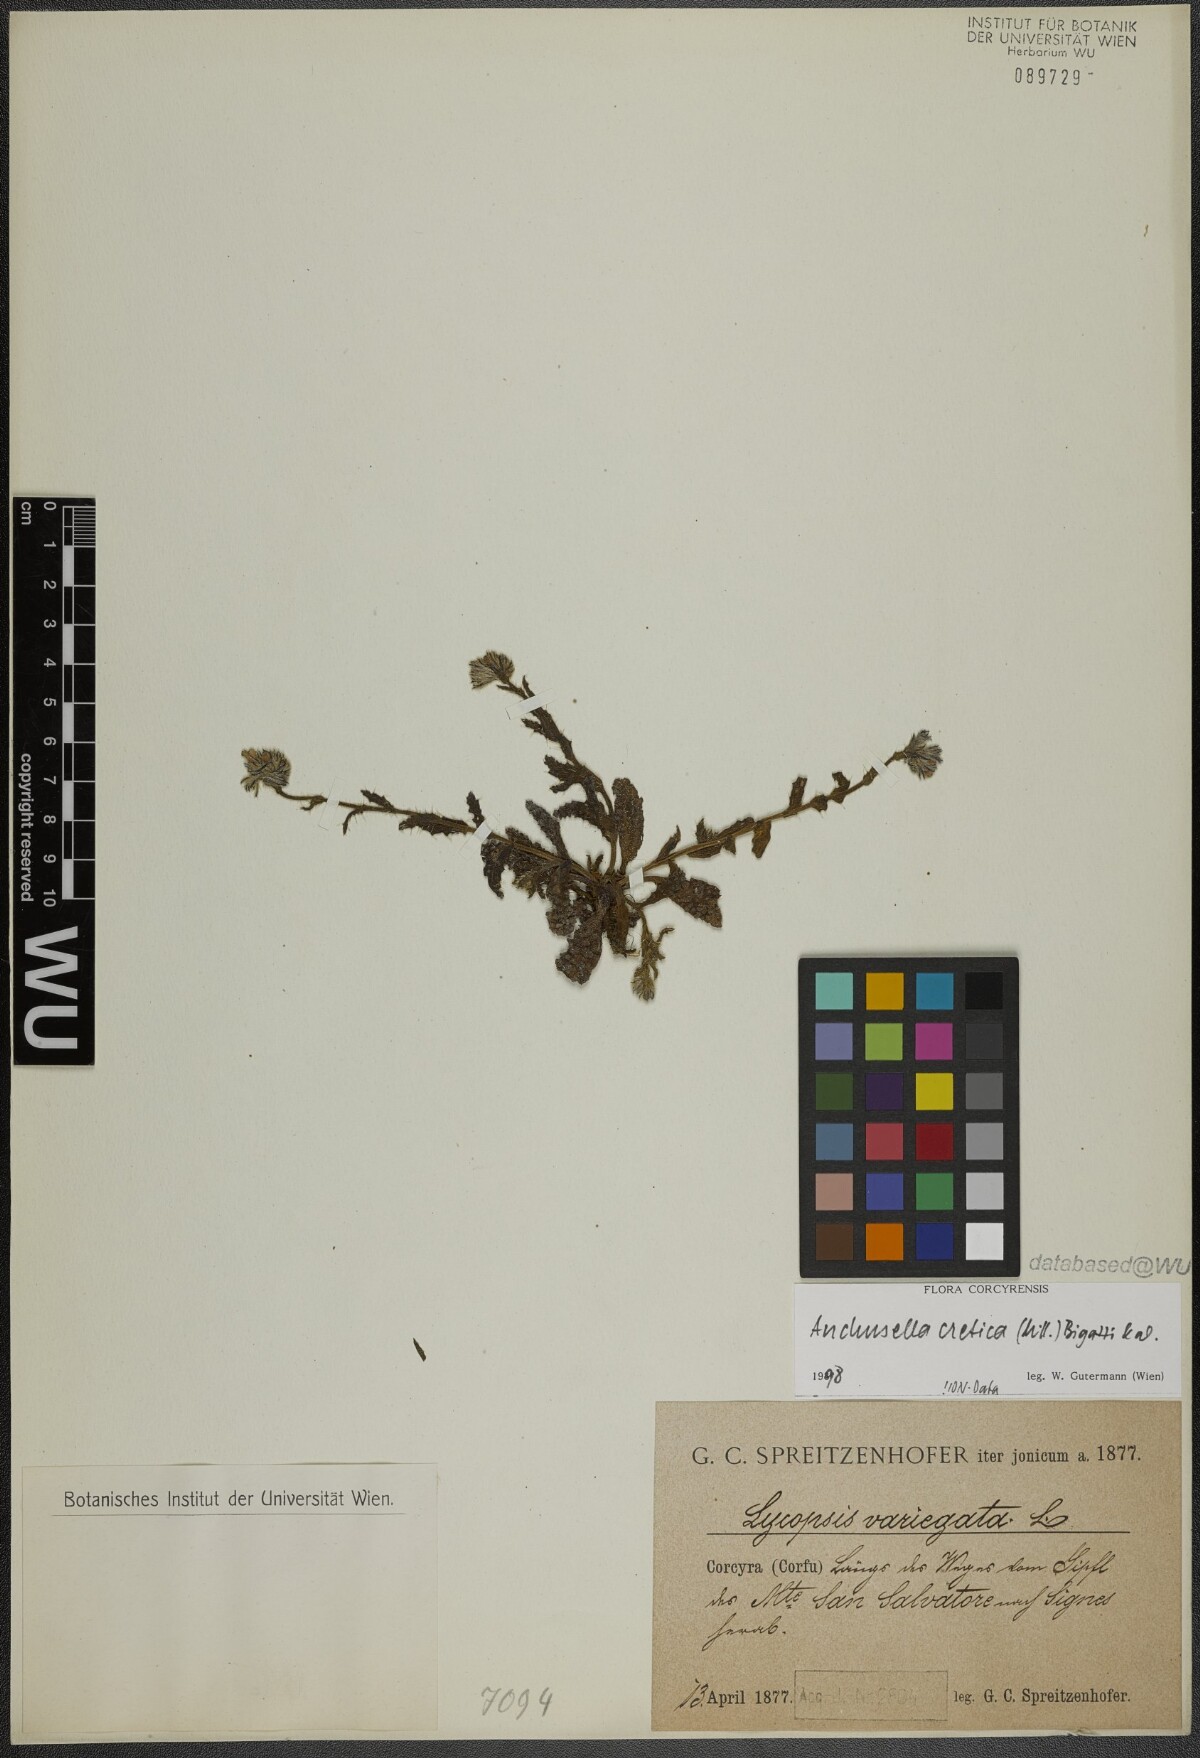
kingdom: Plantae
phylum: Tracheophyta
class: Magnoliopsida
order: Boraginales
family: Boraginaceae
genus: Anchusella
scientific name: Anchusella cretica
